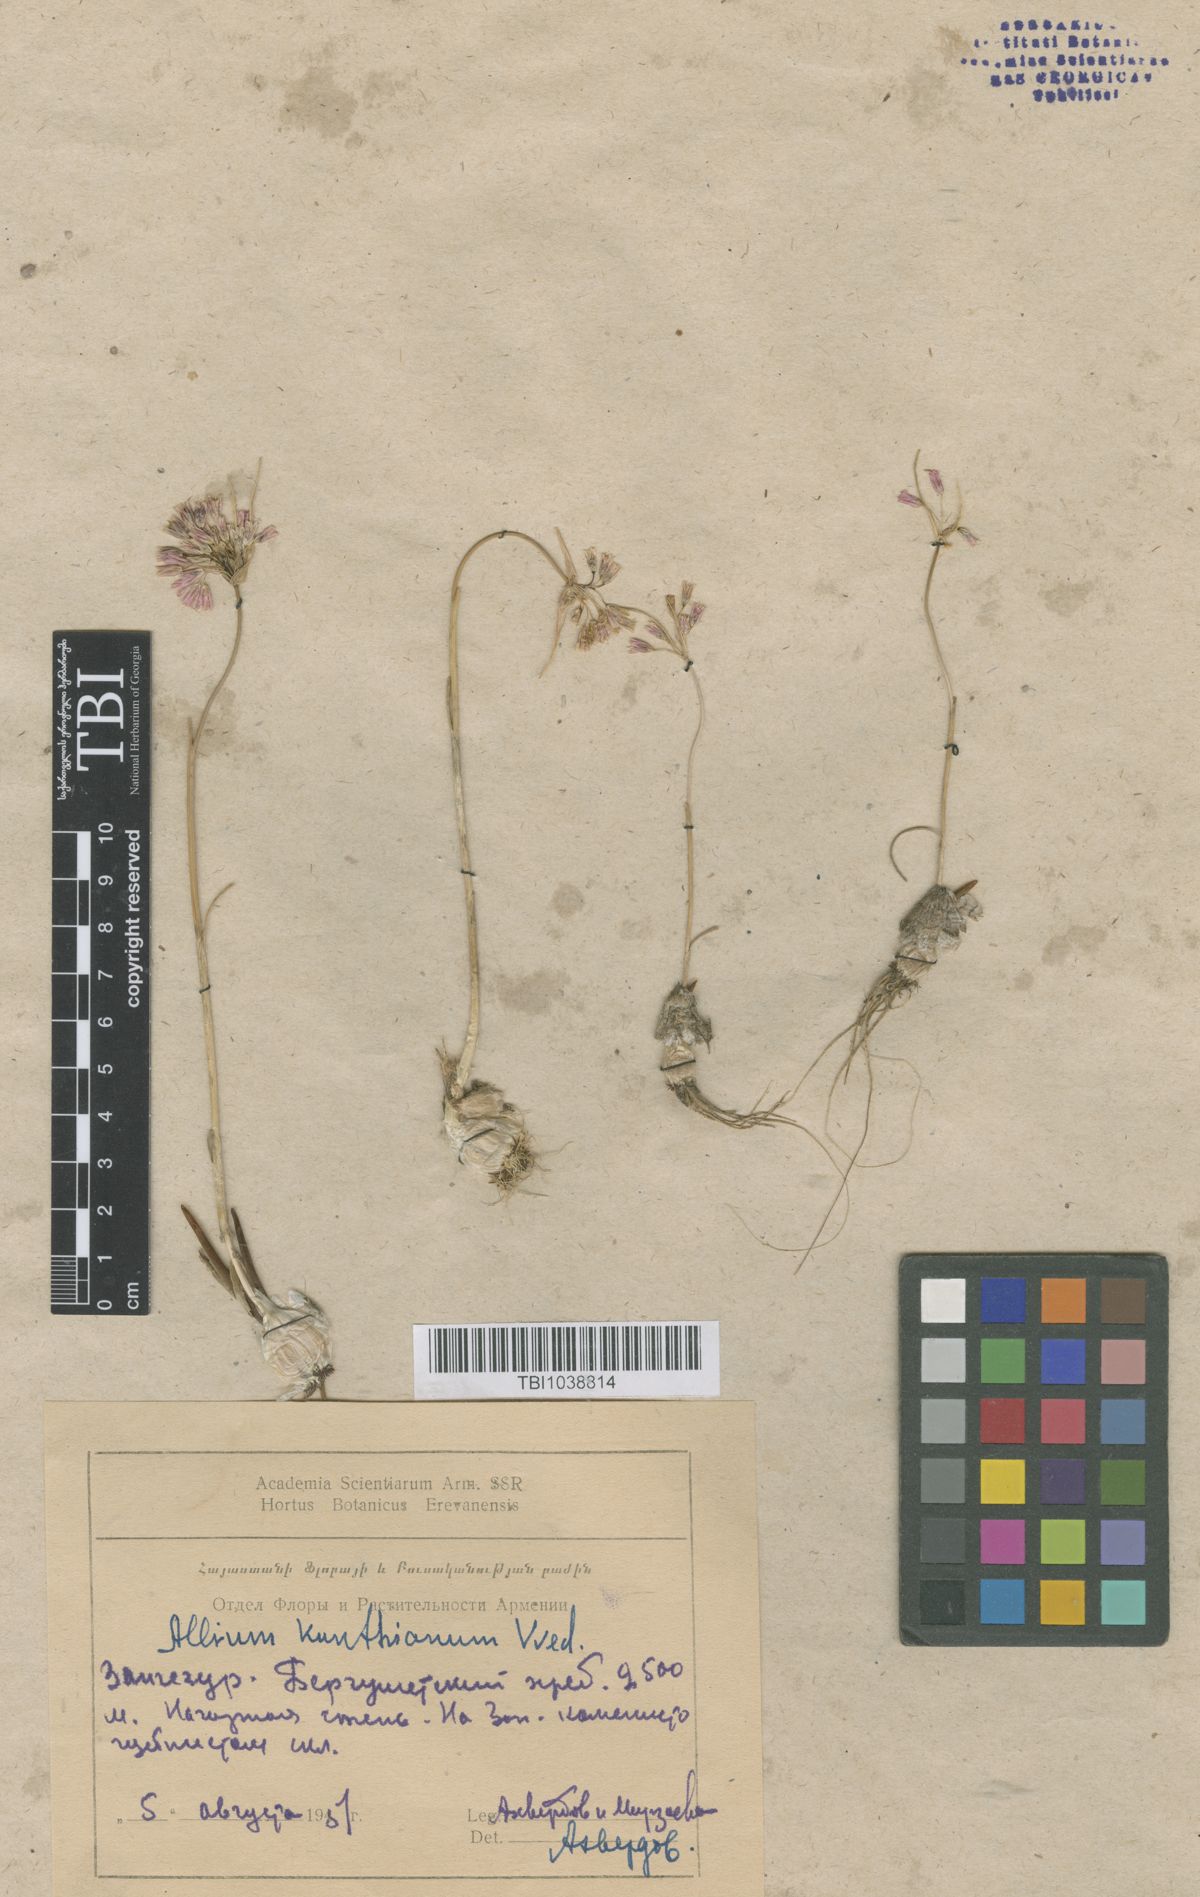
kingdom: Plantae
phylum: Tracheophyta
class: Liliopsida
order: Asparagales
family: Amaryllidaceae
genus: Allium
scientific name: Allium kunthianum
